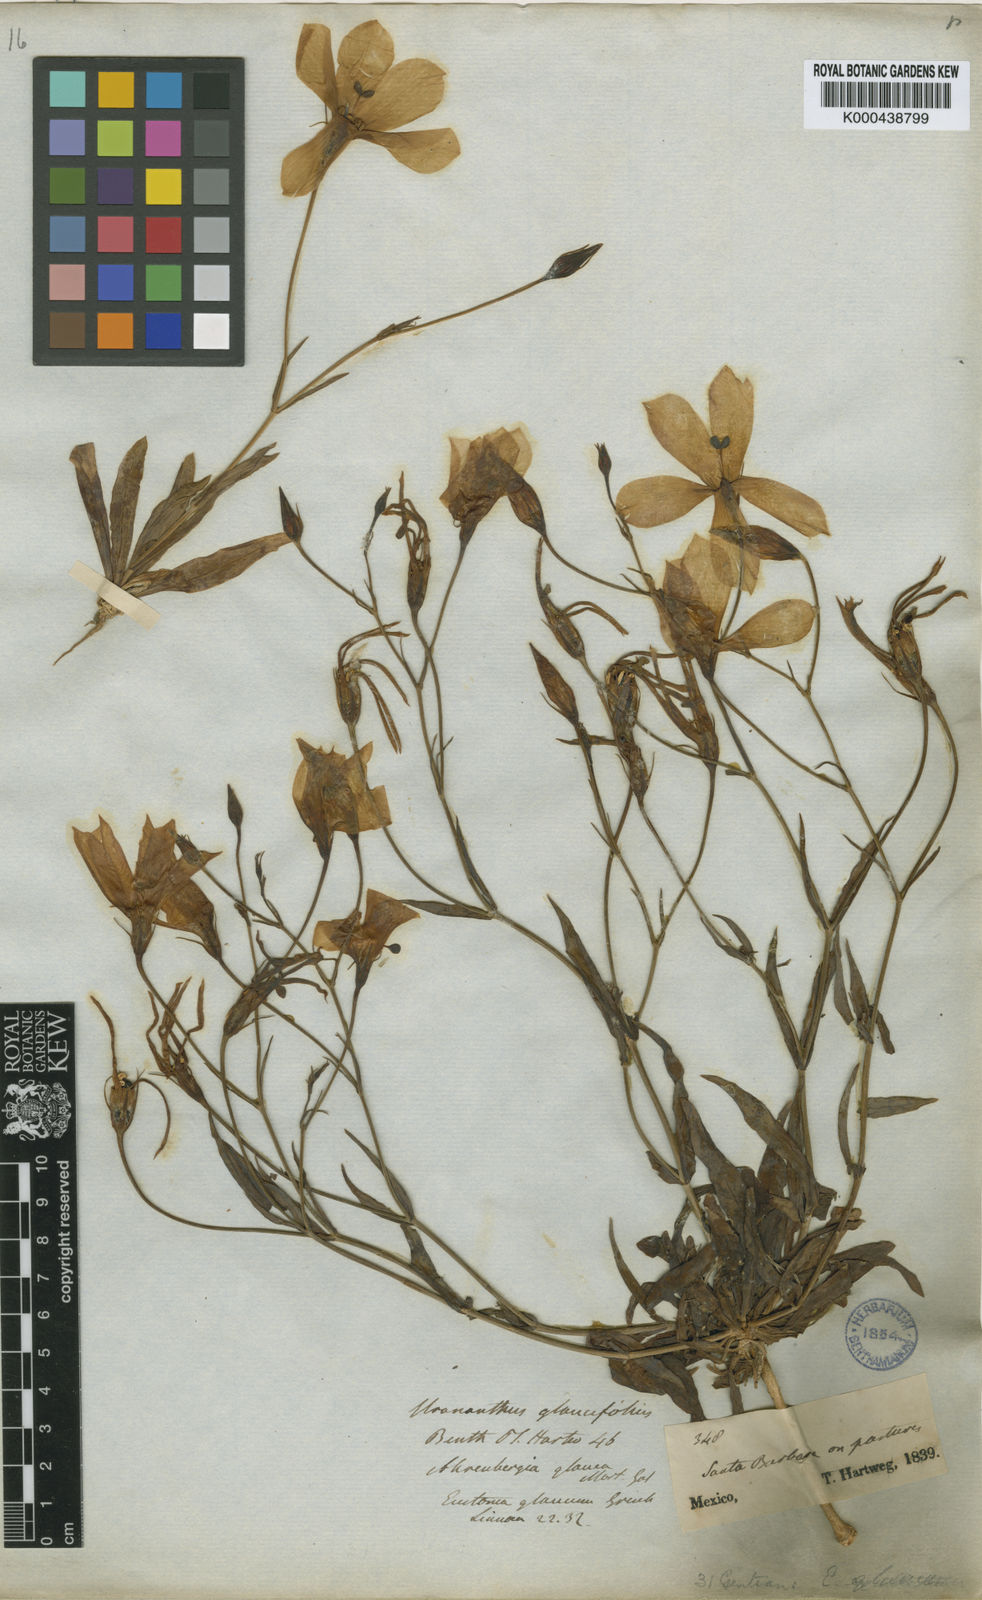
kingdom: Plantae
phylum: Tracheophyta
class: Magnoliopsida
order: Gentianales
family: Gentianaceae
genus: Eustoma
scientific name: Eustoma
